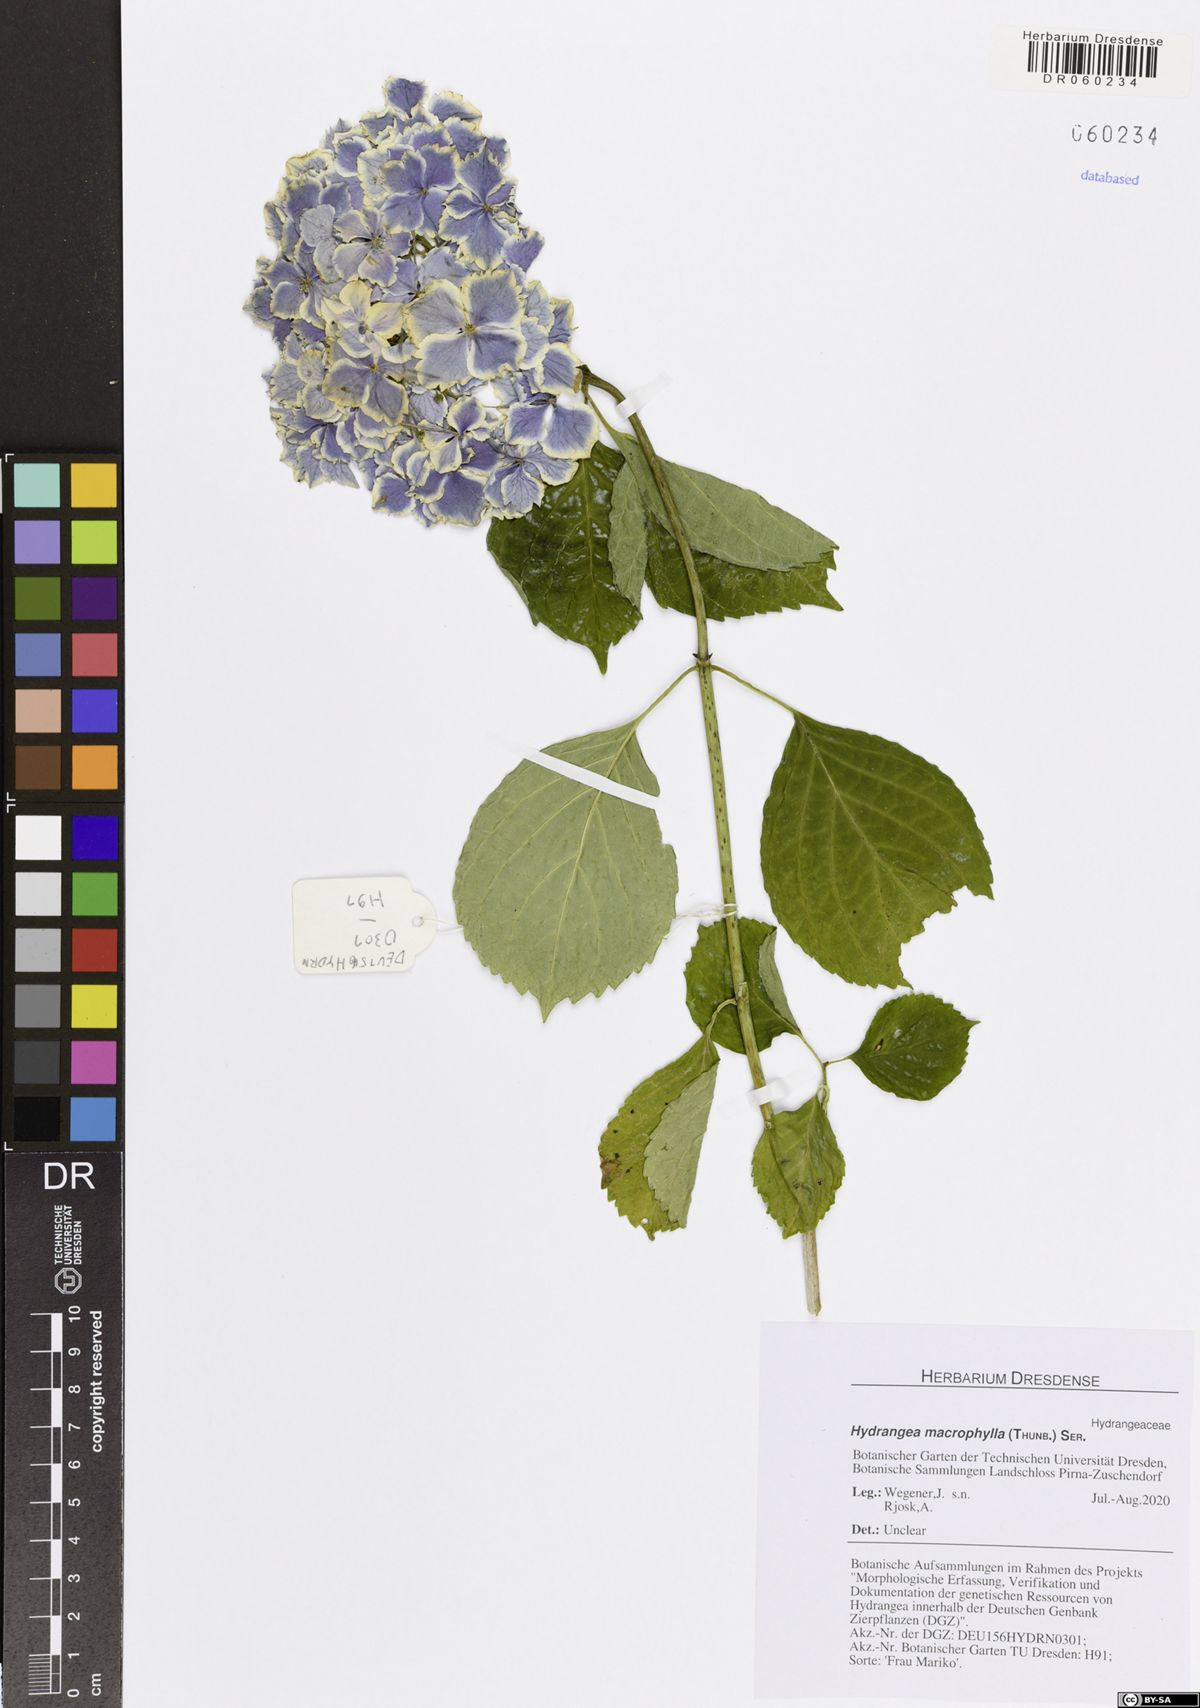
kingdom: Plantae
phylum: Tracheophyta
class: Magnoliopsida
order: Cornales
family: Hydrangeaceae
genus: Hydrangea
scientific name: Hydrangea macrophylla
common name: Hydrangea
